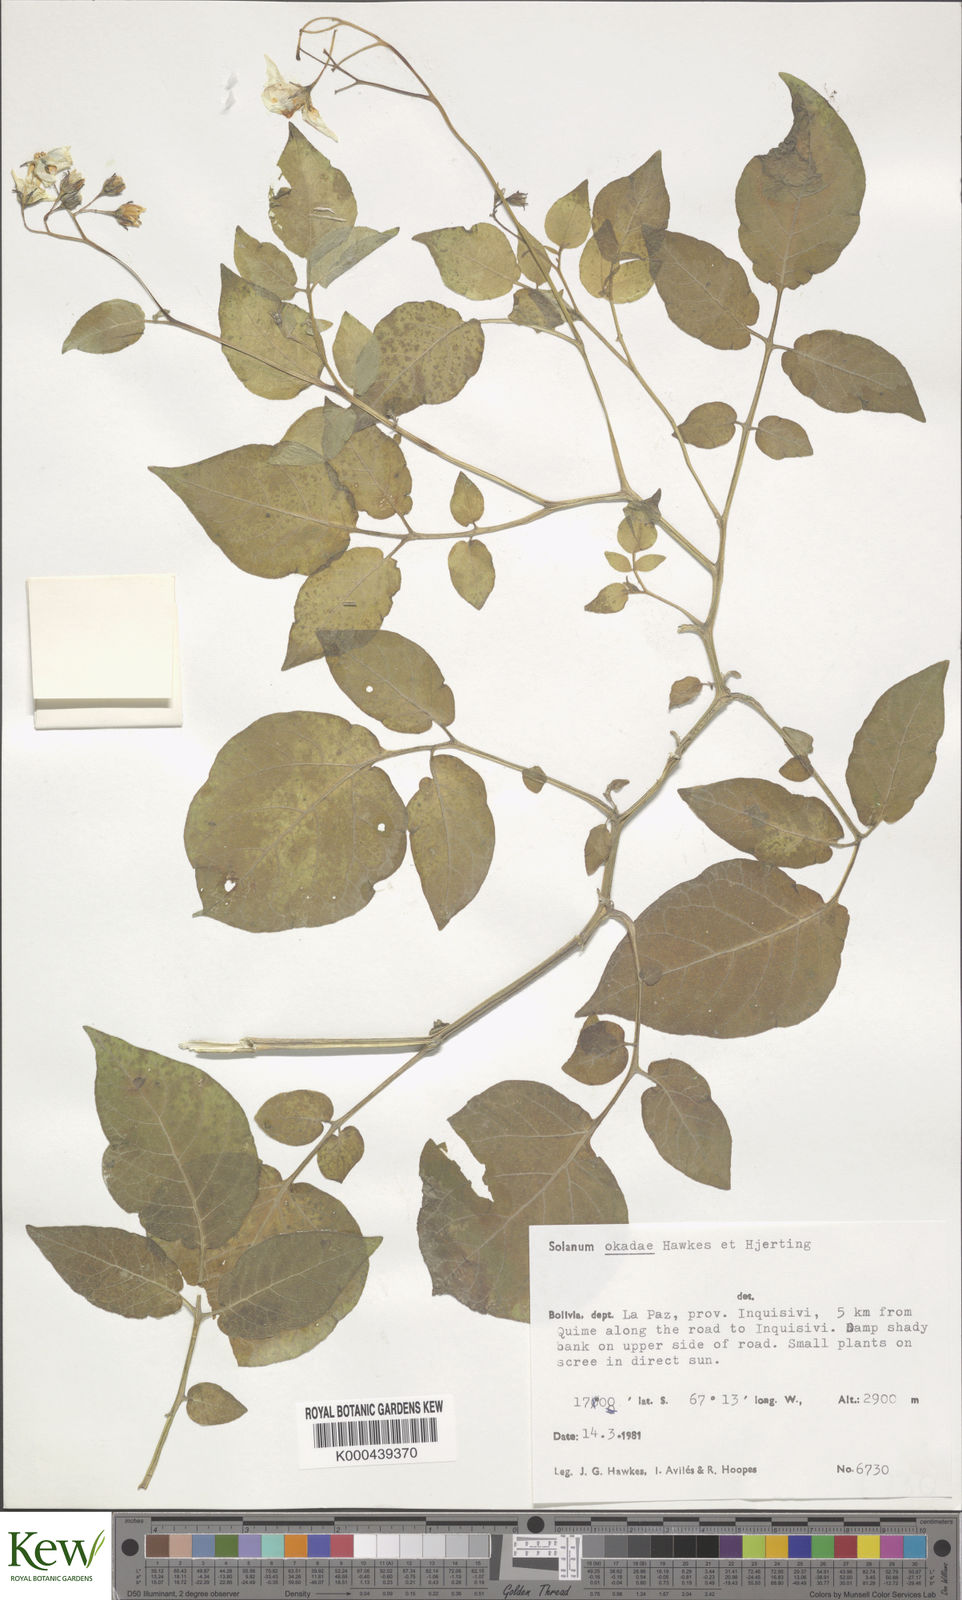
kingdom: Plantae
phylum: Tracheophyta
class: Magnoliopsida
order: Solanales
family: Solanaceae
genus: Solanum
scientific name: Solanum okadae
